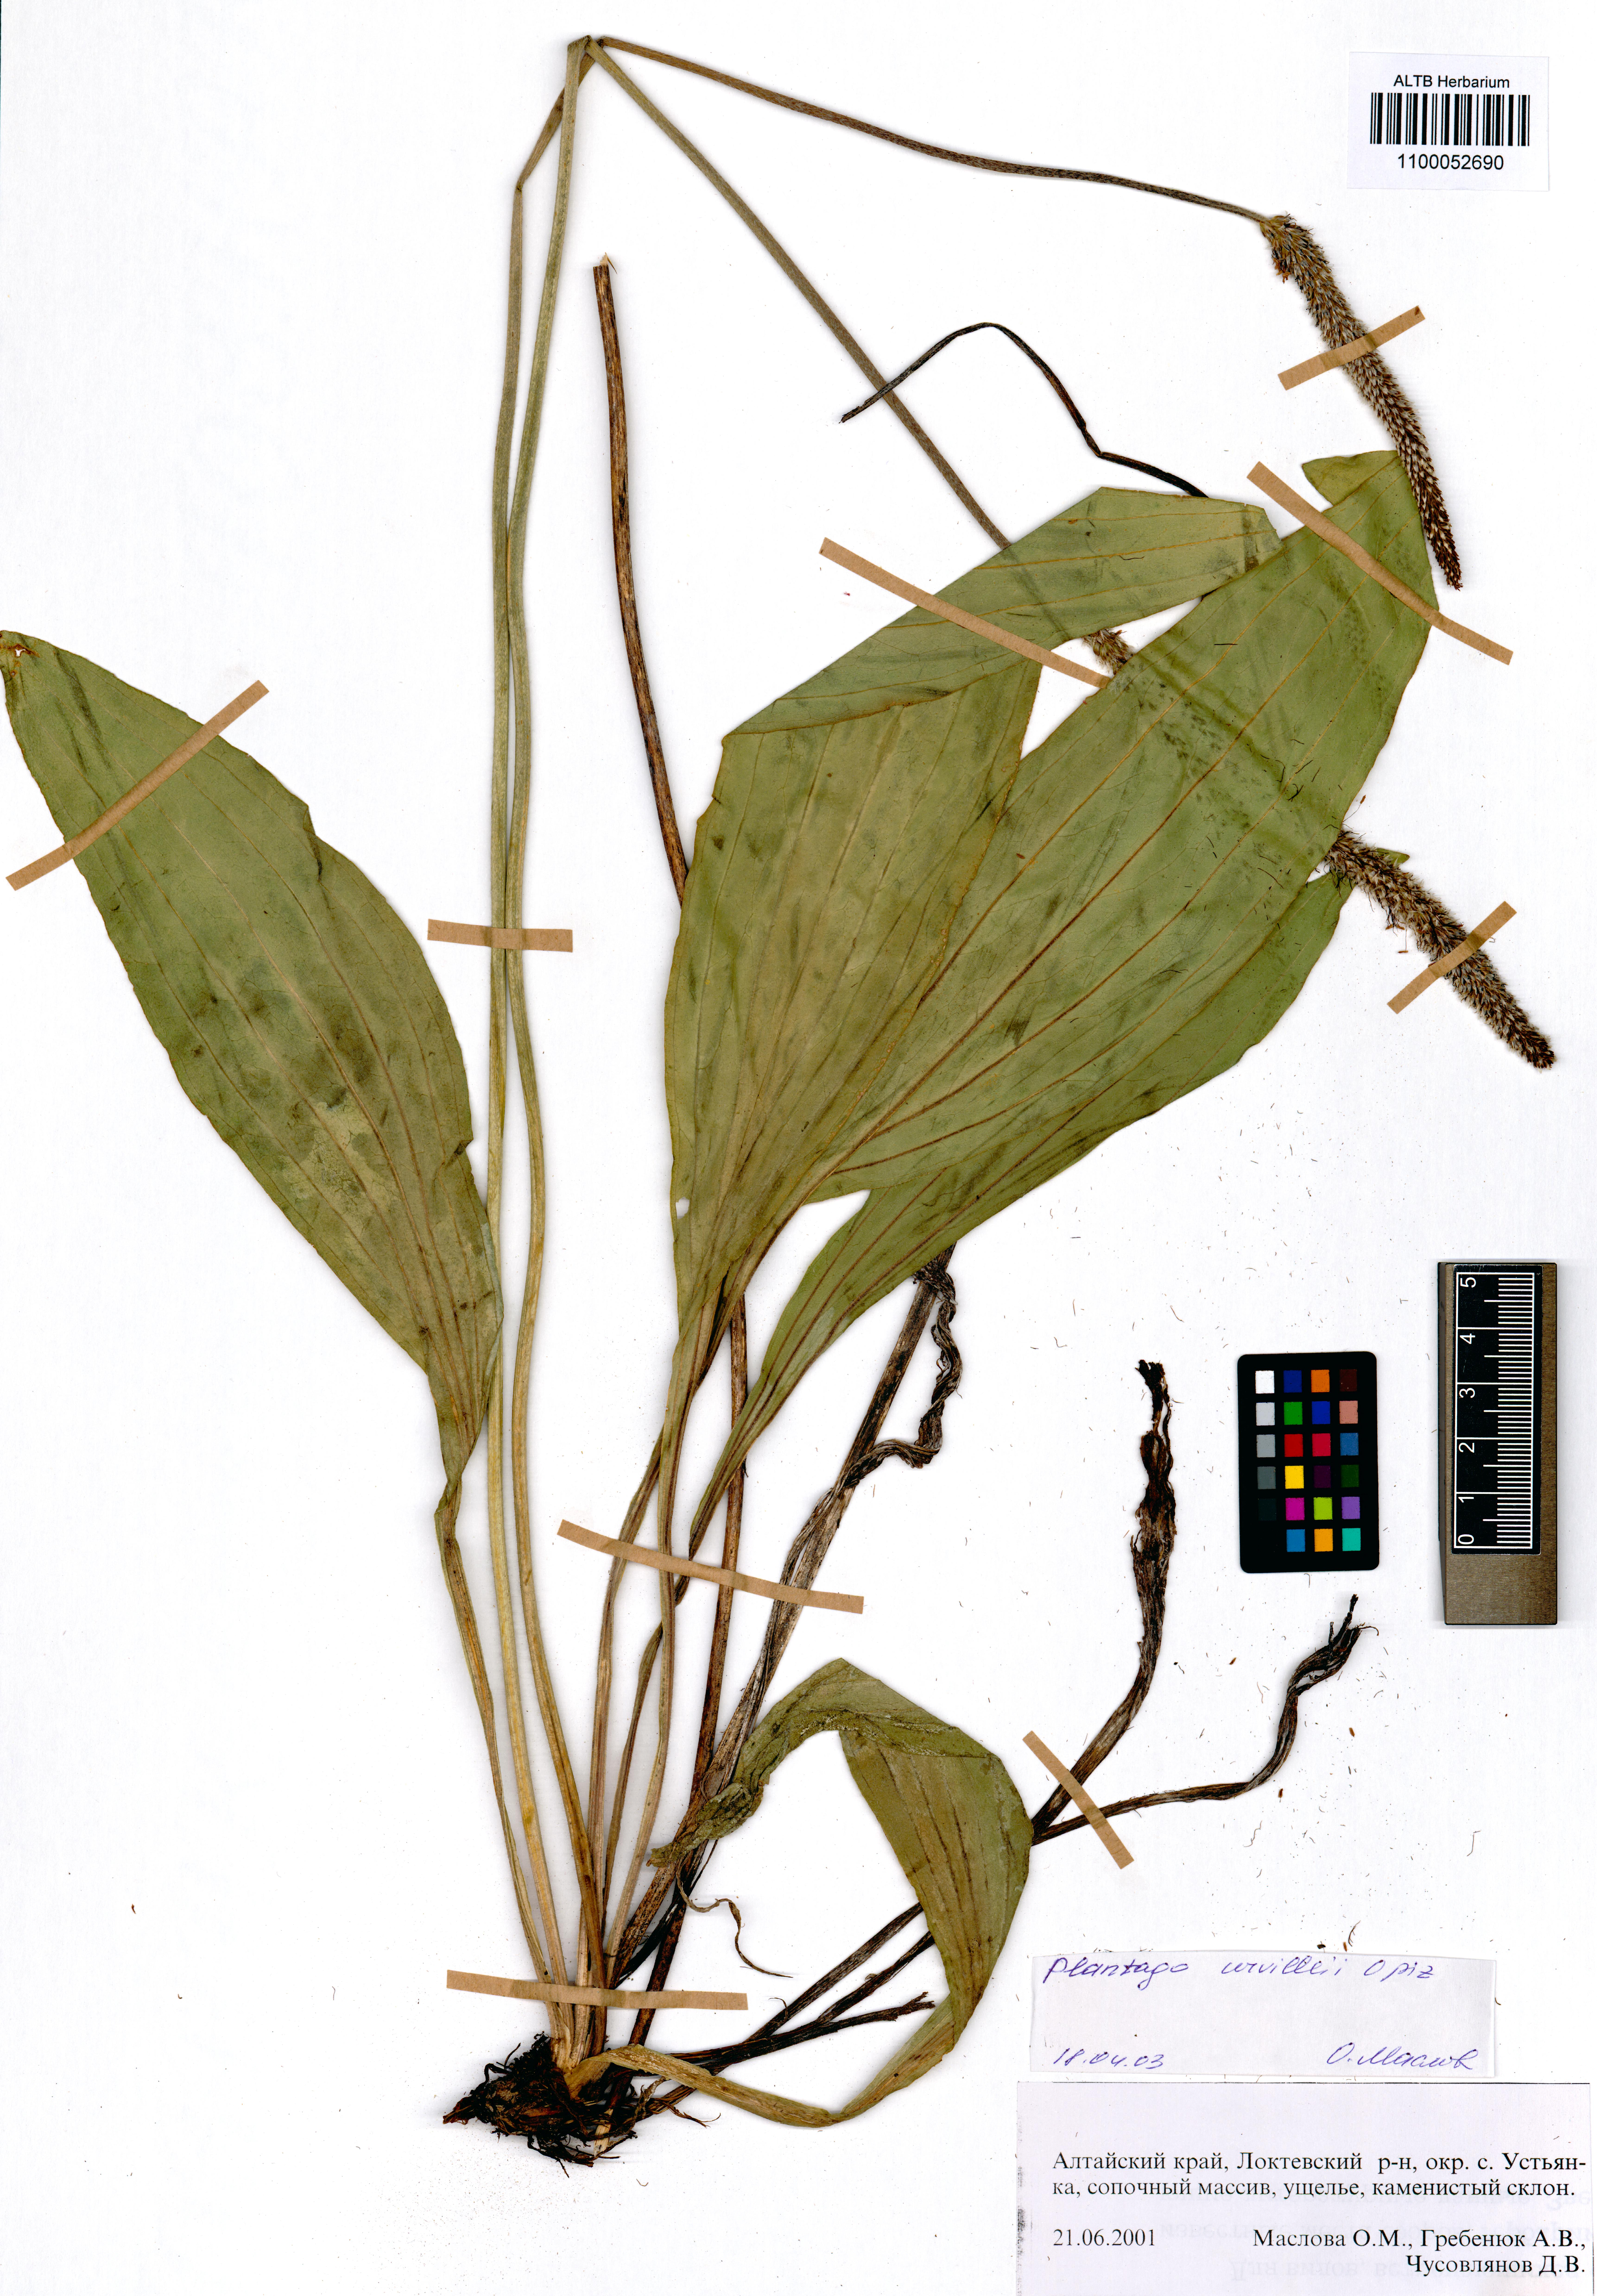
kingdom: Plantae
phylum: Tracheophyta
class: Magnoliopsida
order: Lamiales
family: Plantaginaceae
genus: Plantago
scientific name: Plantago urvillei
